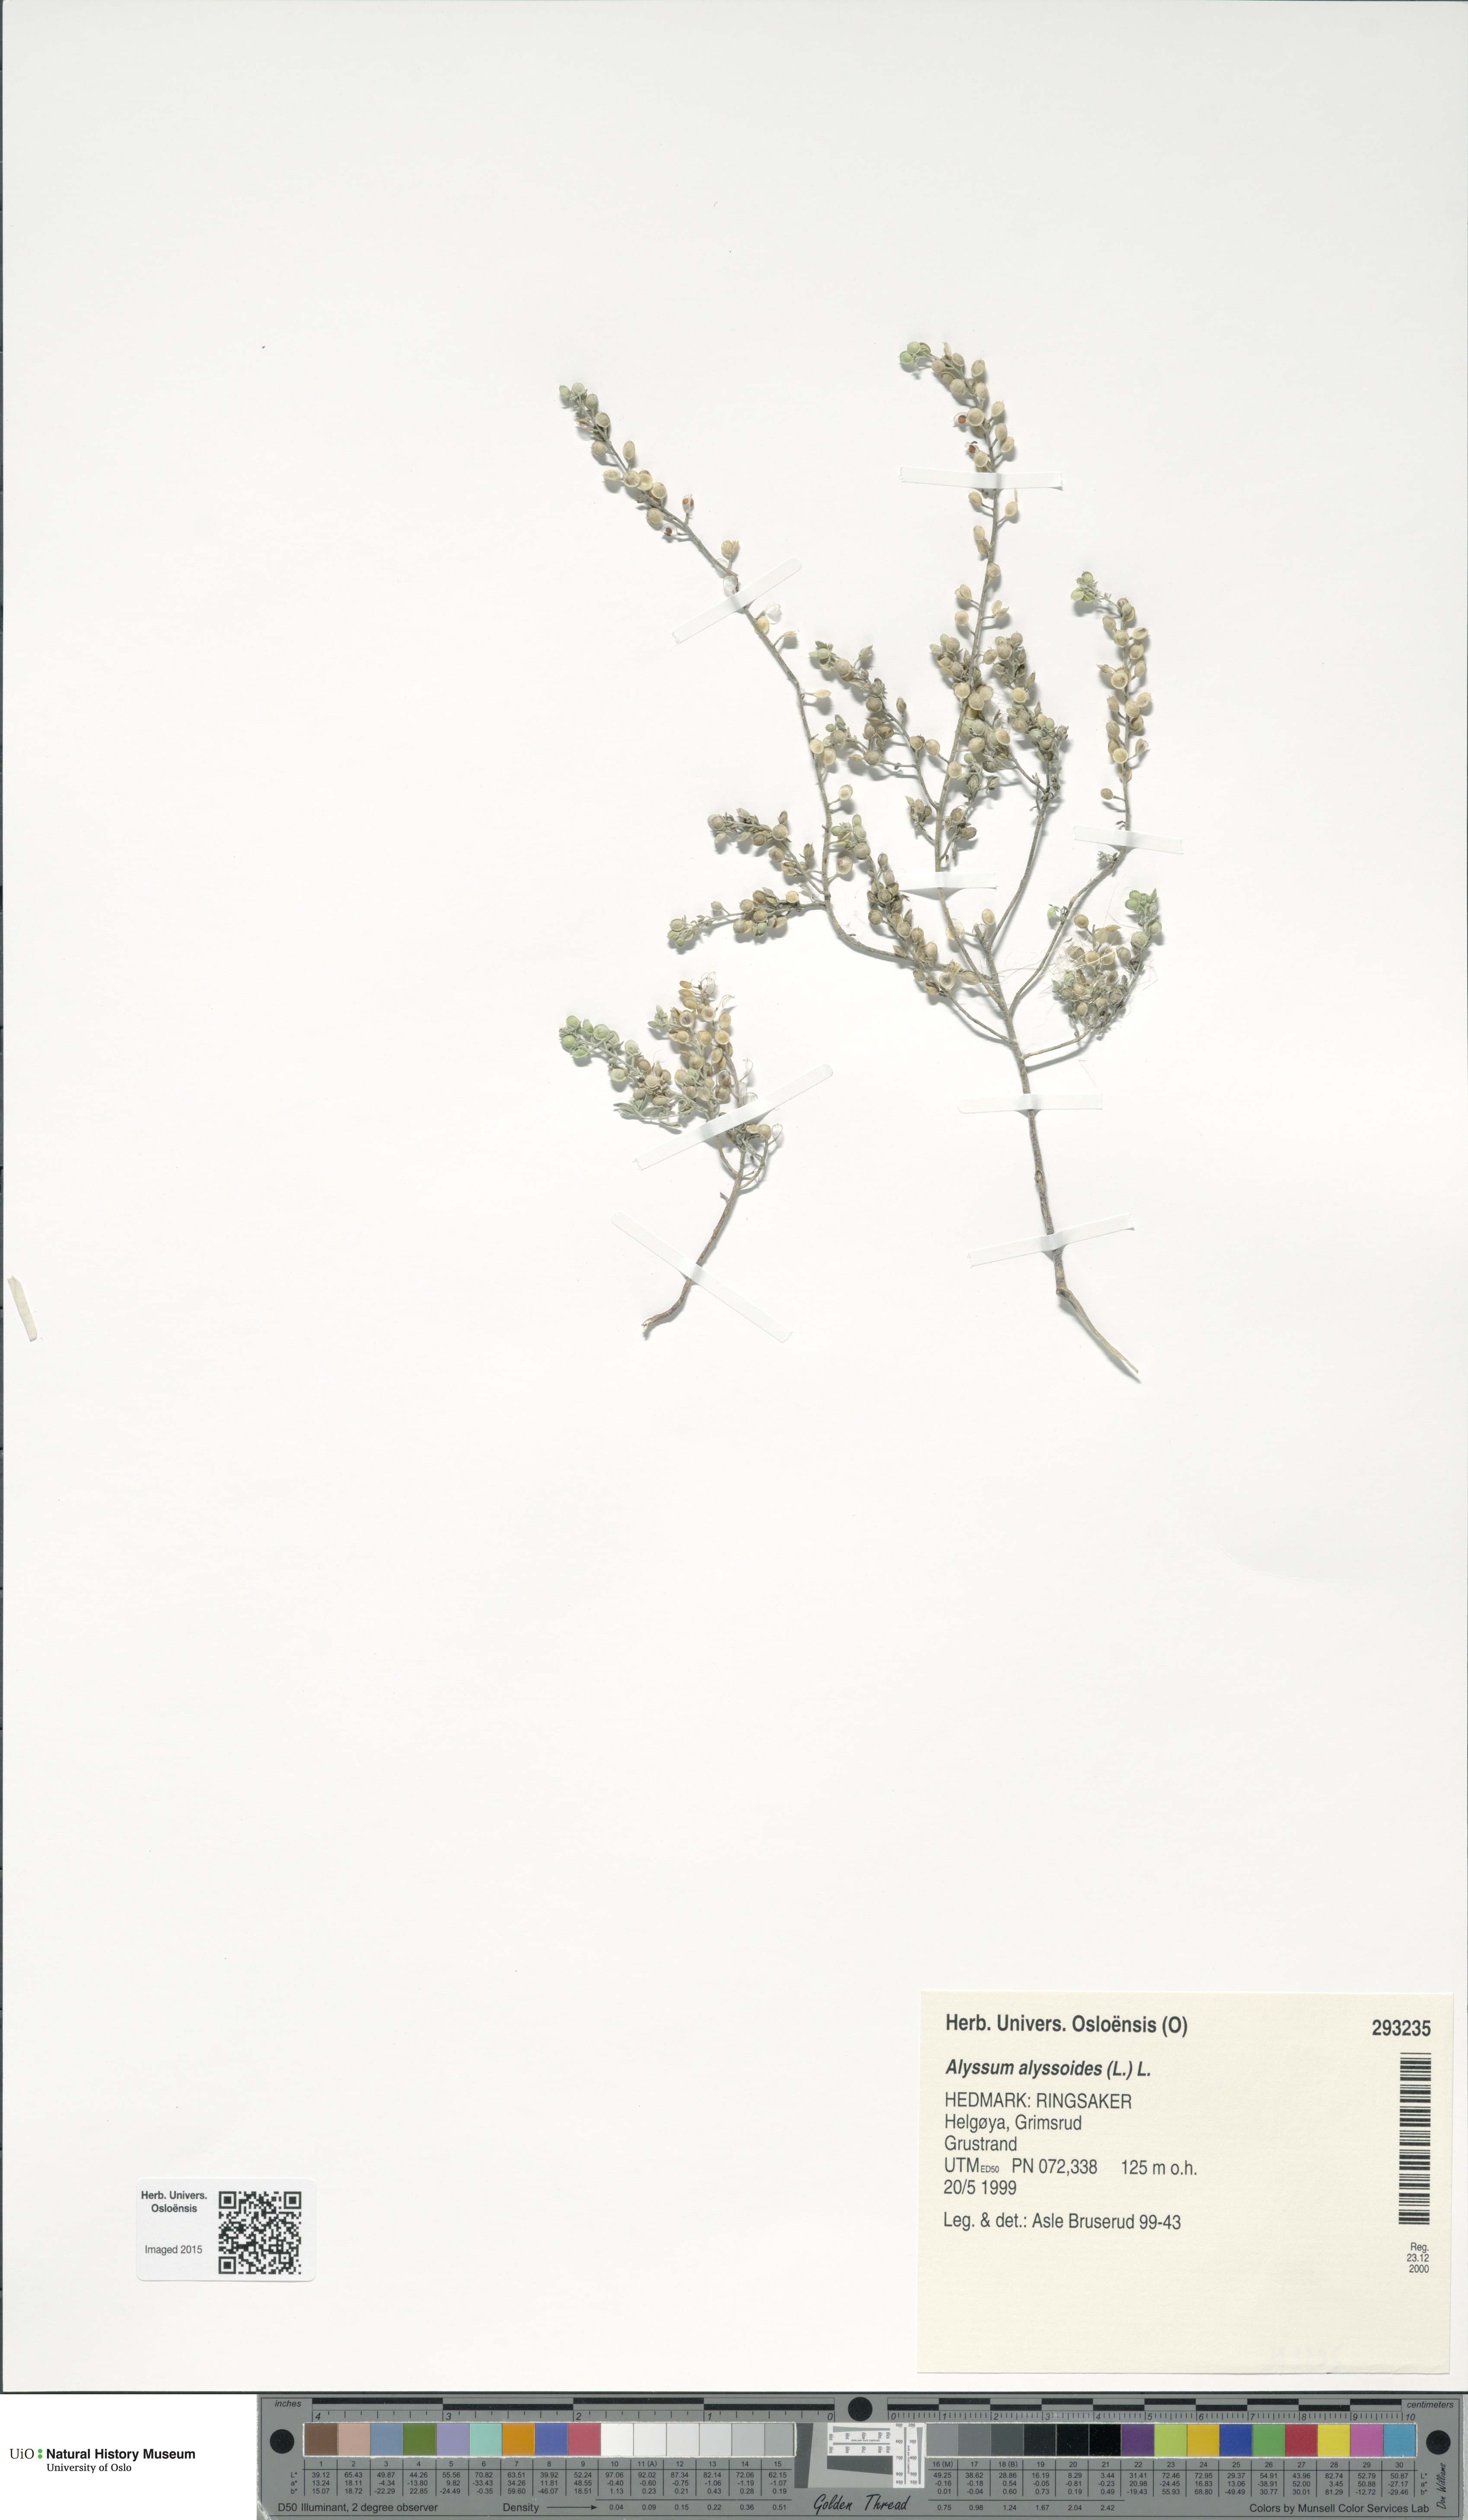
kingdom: Plantae
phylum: Tracheophyta
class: Magnoliopsida
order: Brassicales
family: Brassicaceae
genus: Alyssum
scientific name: Alyssum alyssoides
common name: Small alison
